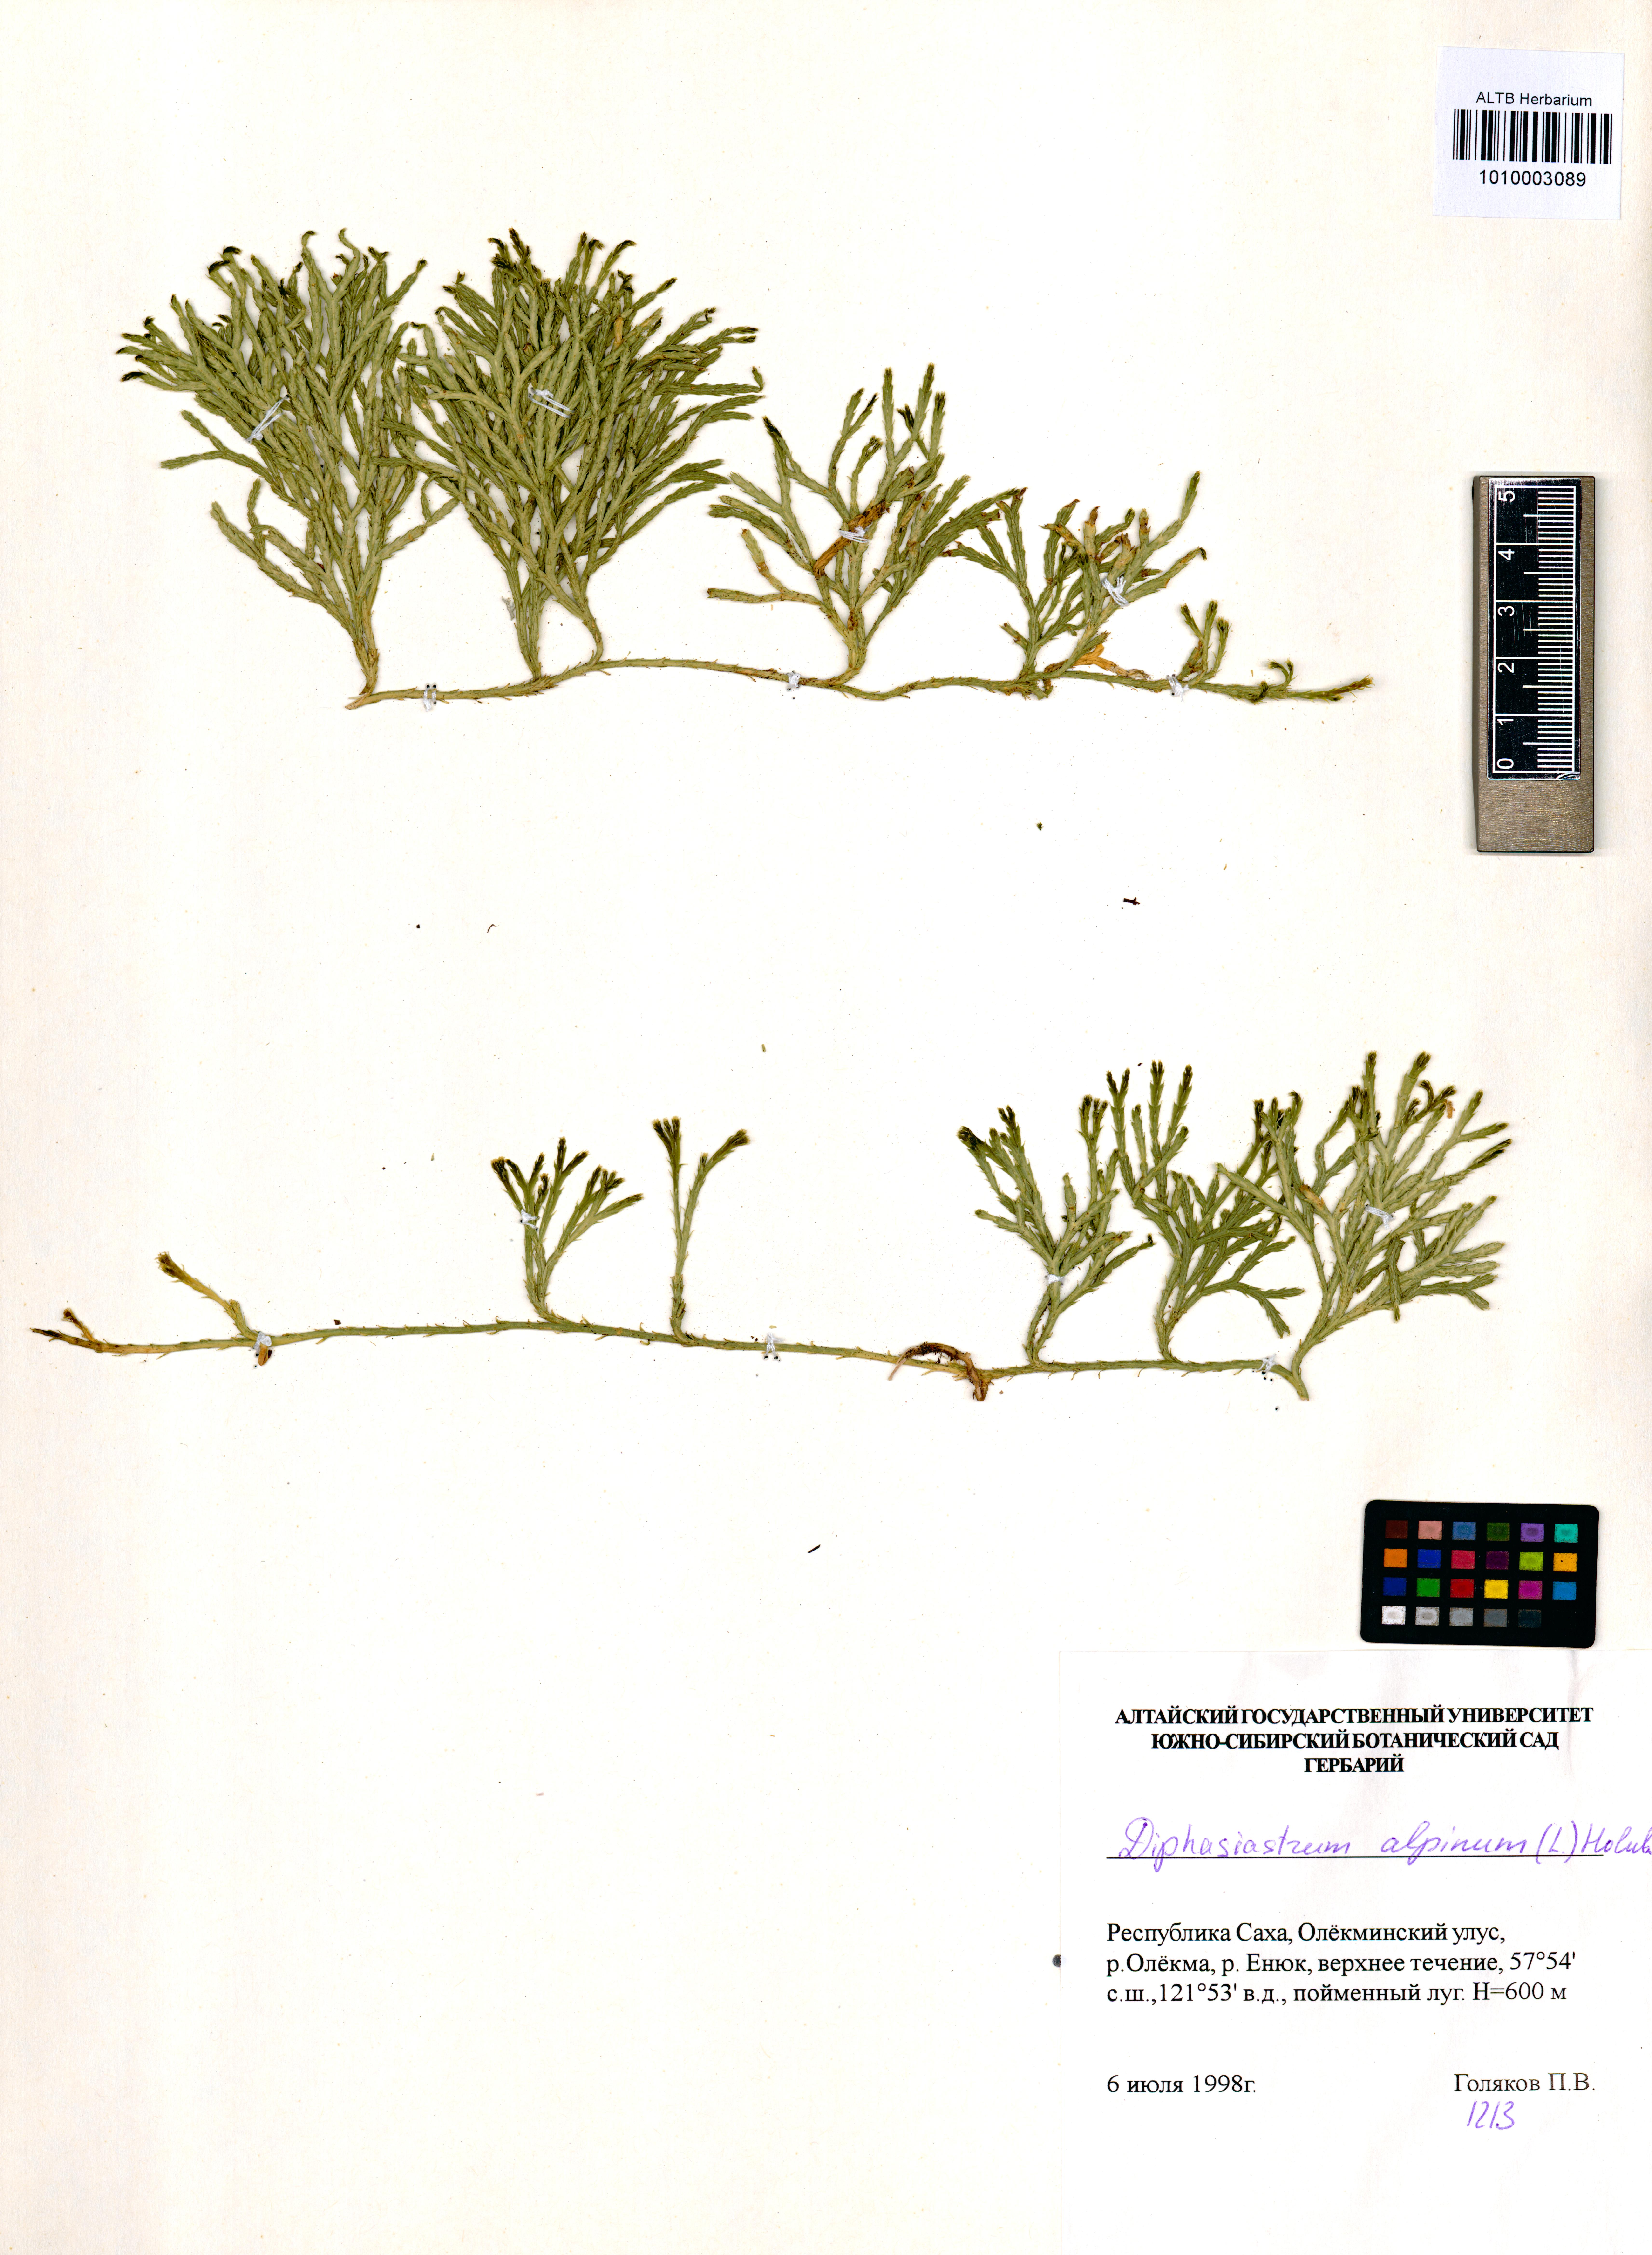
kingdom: Plantae
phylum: Tracheophyta
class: Lycopodiopsida
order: Lycopodiales
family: Lycopodiaceae
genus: Diphasiastrum
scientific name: Diphasiastrum alpinum
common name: Alpine clubmoss
